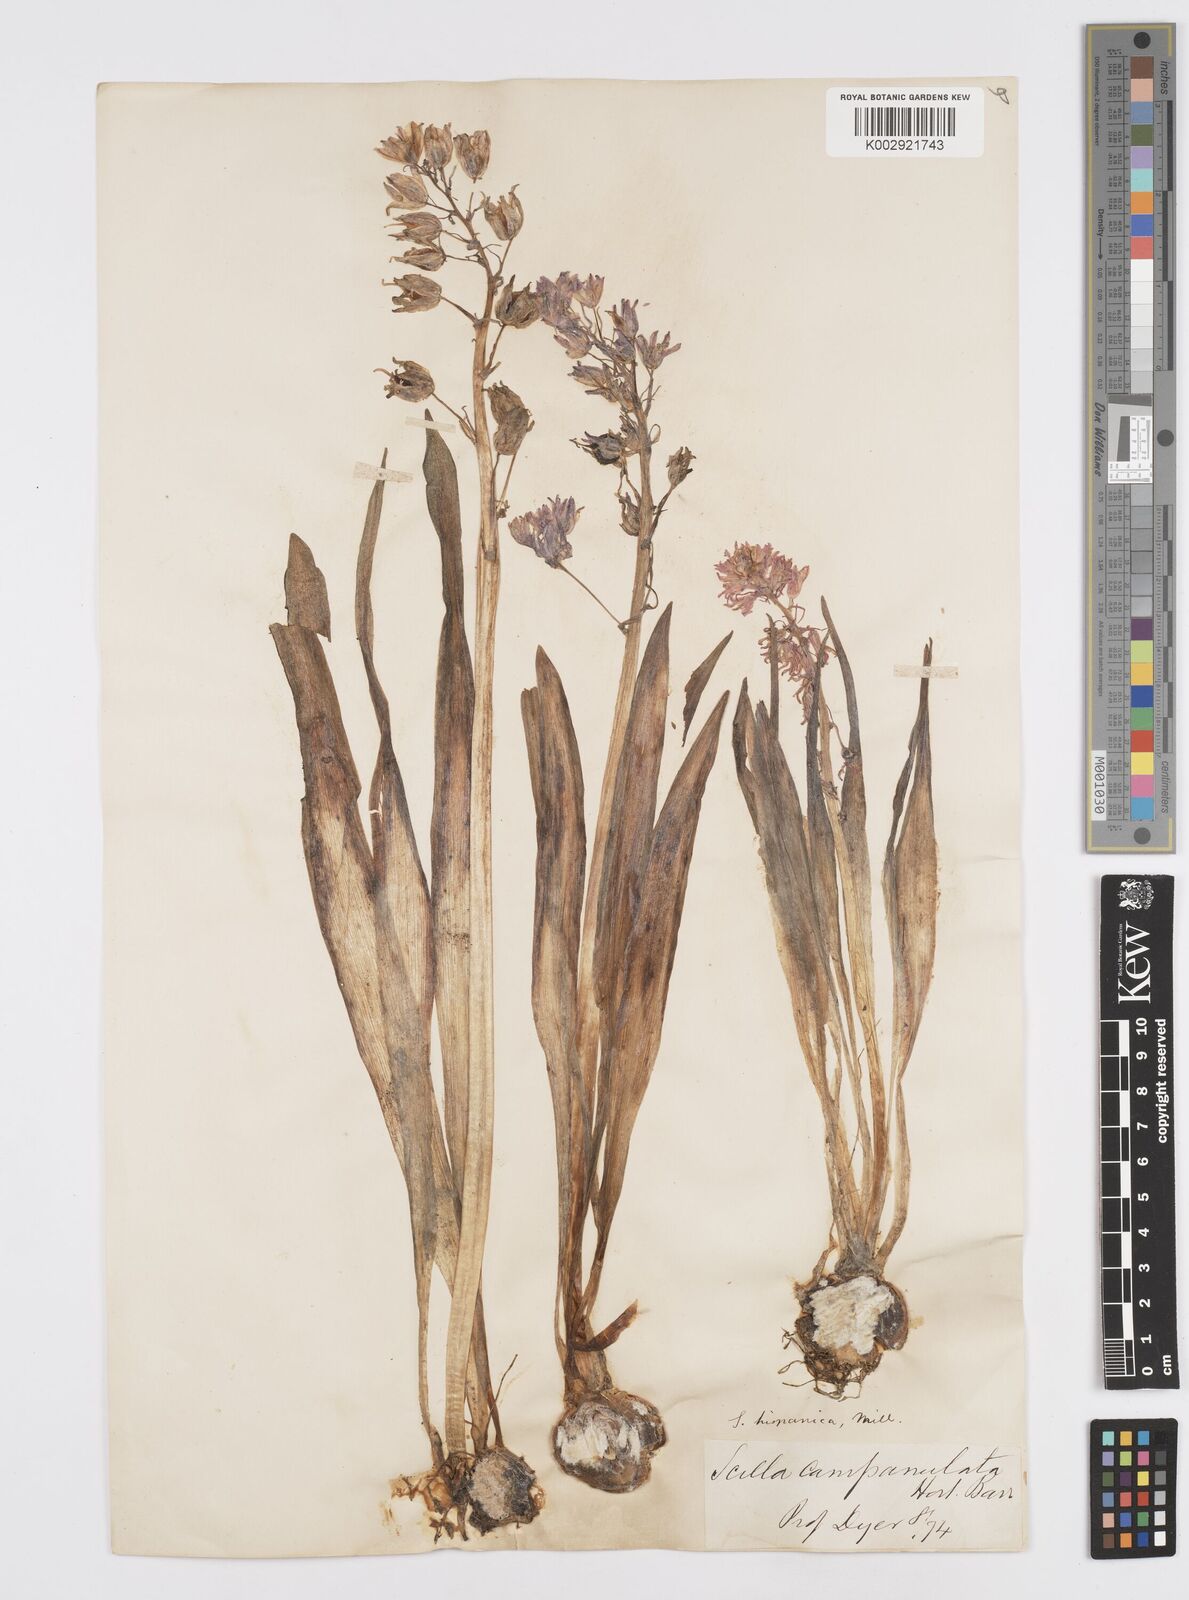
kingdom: Plantae
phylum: Tracheophyta
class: Liliopsida
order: Asparagales
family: Asparagaceae
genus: Hyacinthoides
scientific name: Hyacinthoides hispanica
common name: Spanish bluebell
